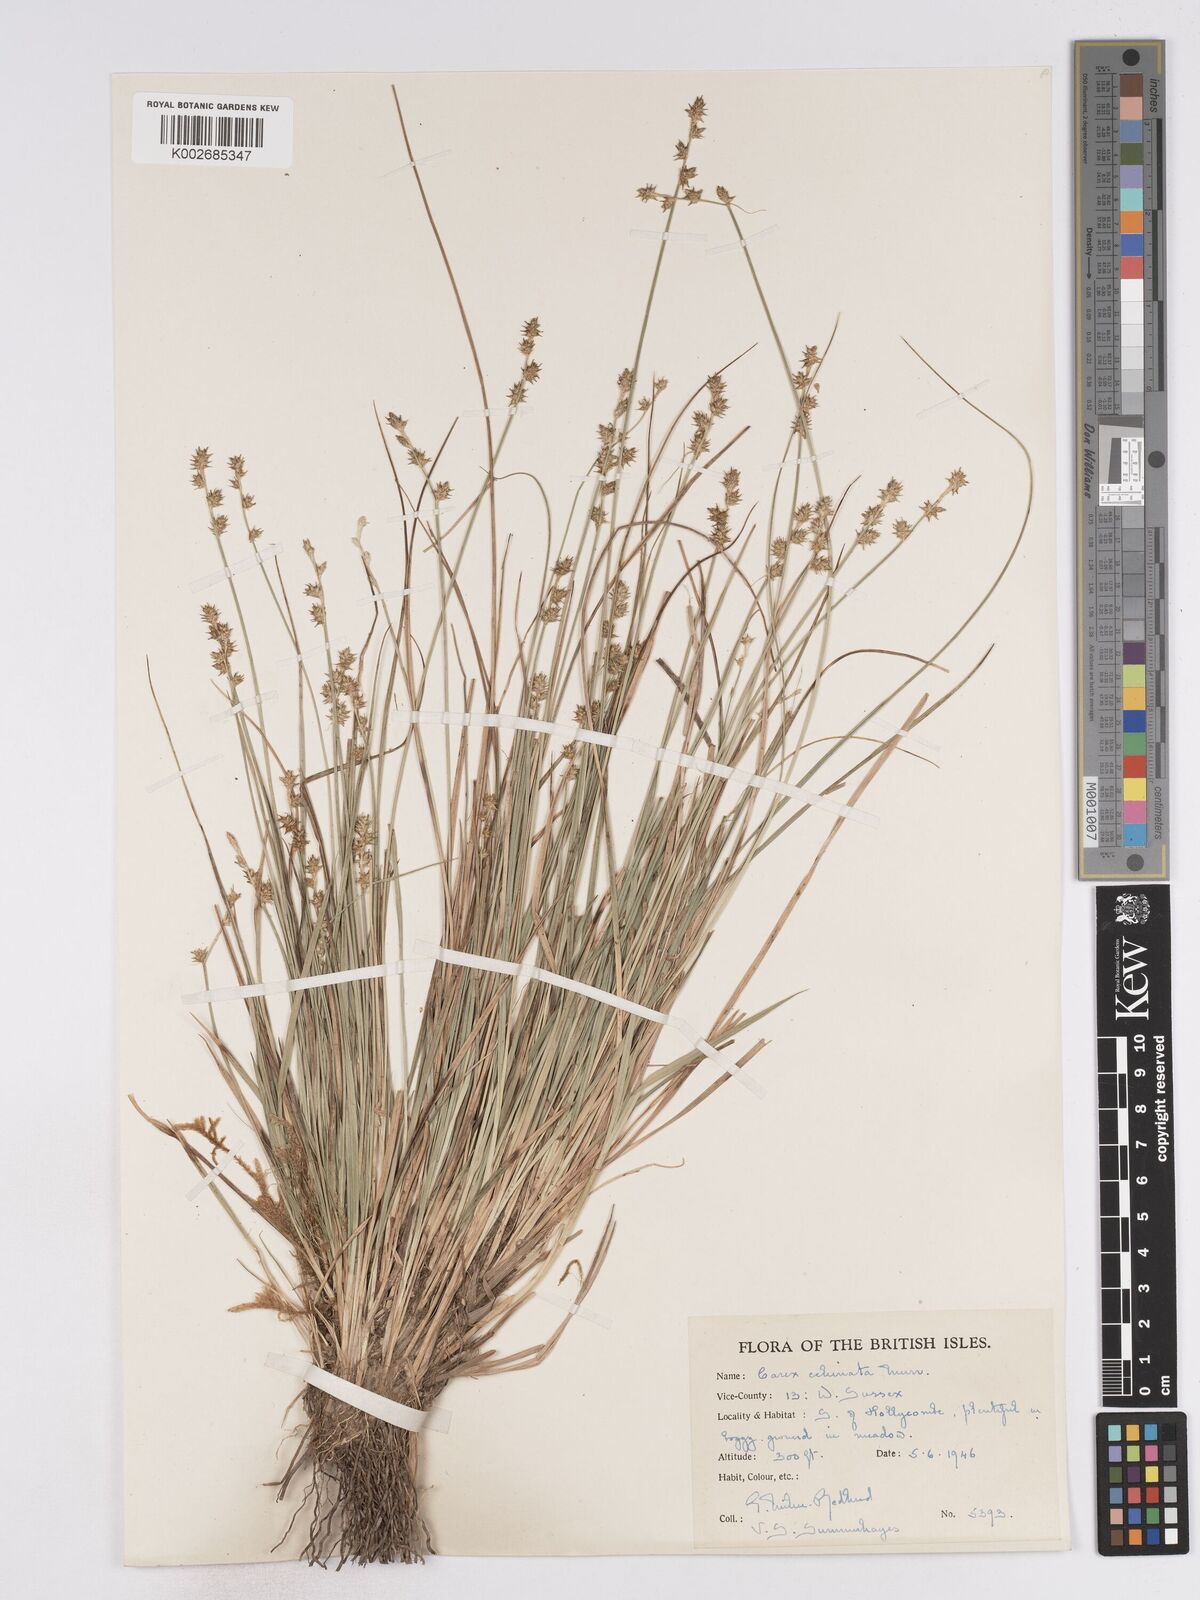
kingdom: Plantae
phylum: Tracheophyta
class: Liliopsida
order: Poales
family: Cyperaceae
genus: Carex
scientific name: Carex echinata
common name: Star sedge
